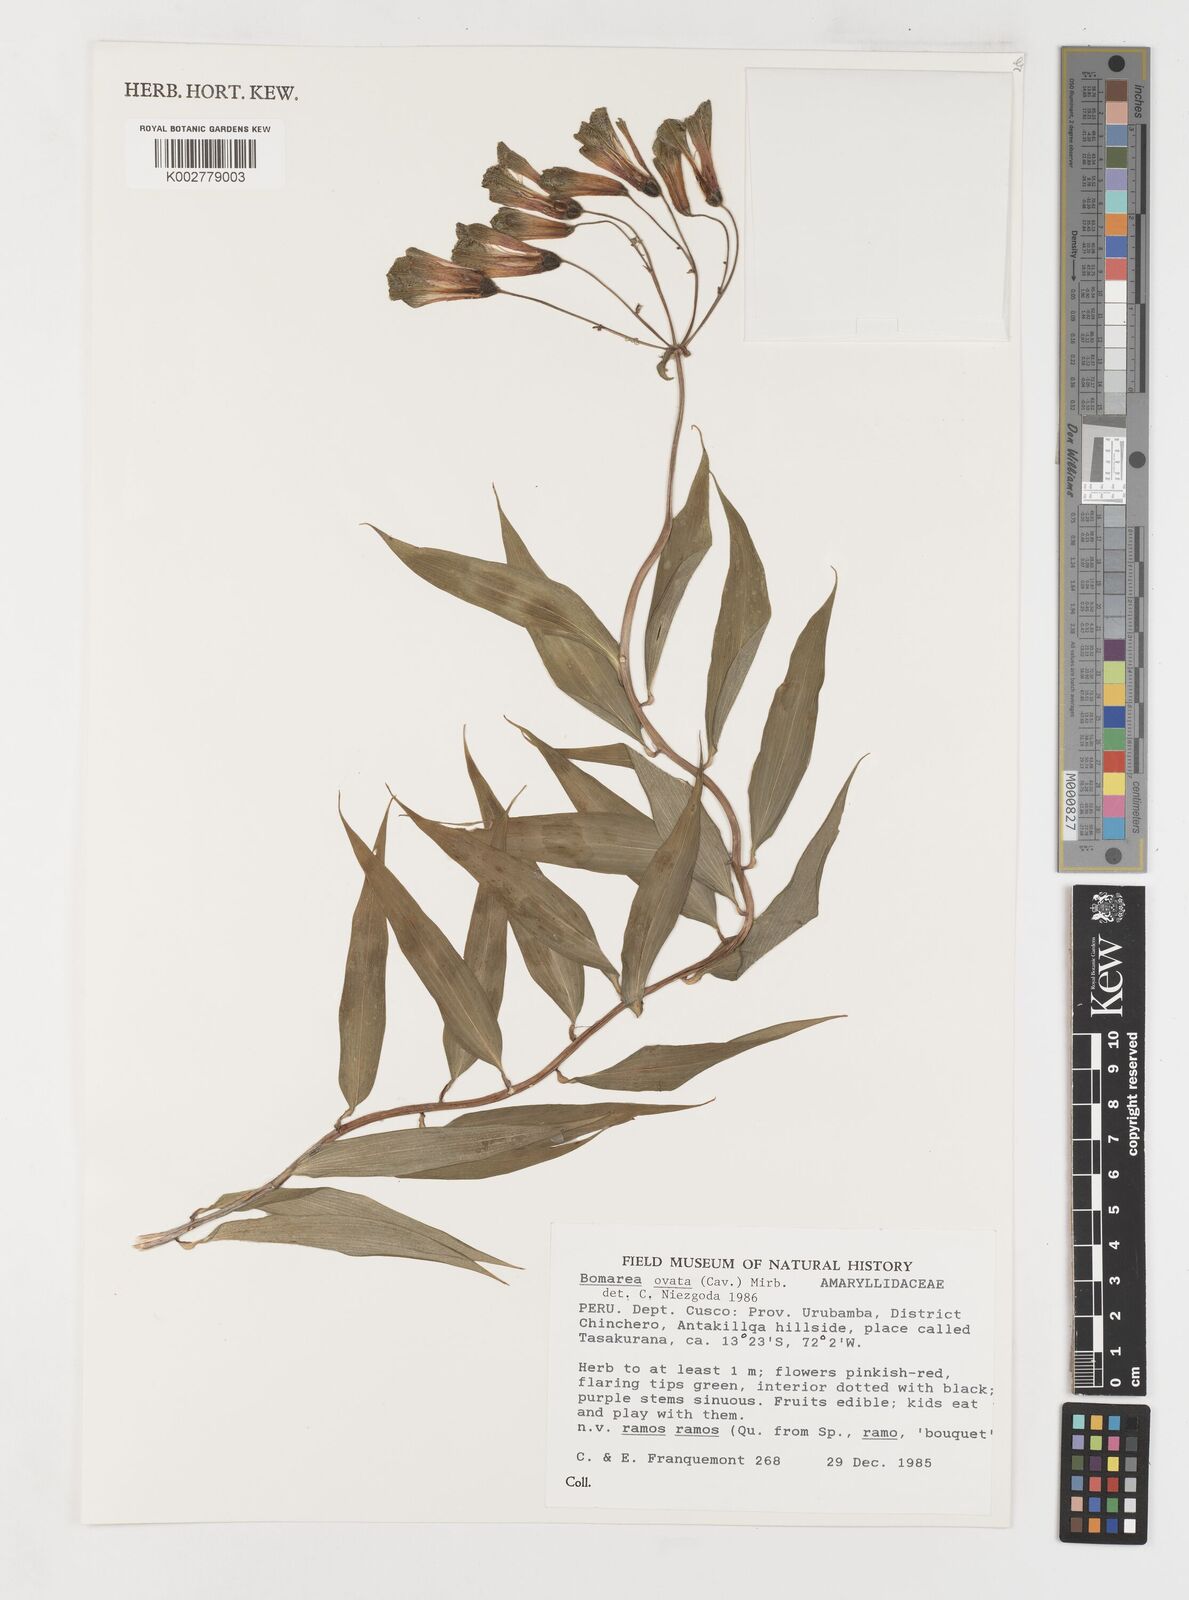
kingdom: Plantae
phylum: Tracheophyta
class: Liliopsida
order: Liliales
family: Alstroemeriaceae
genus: Bomarea
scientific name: Bomarea ovata
